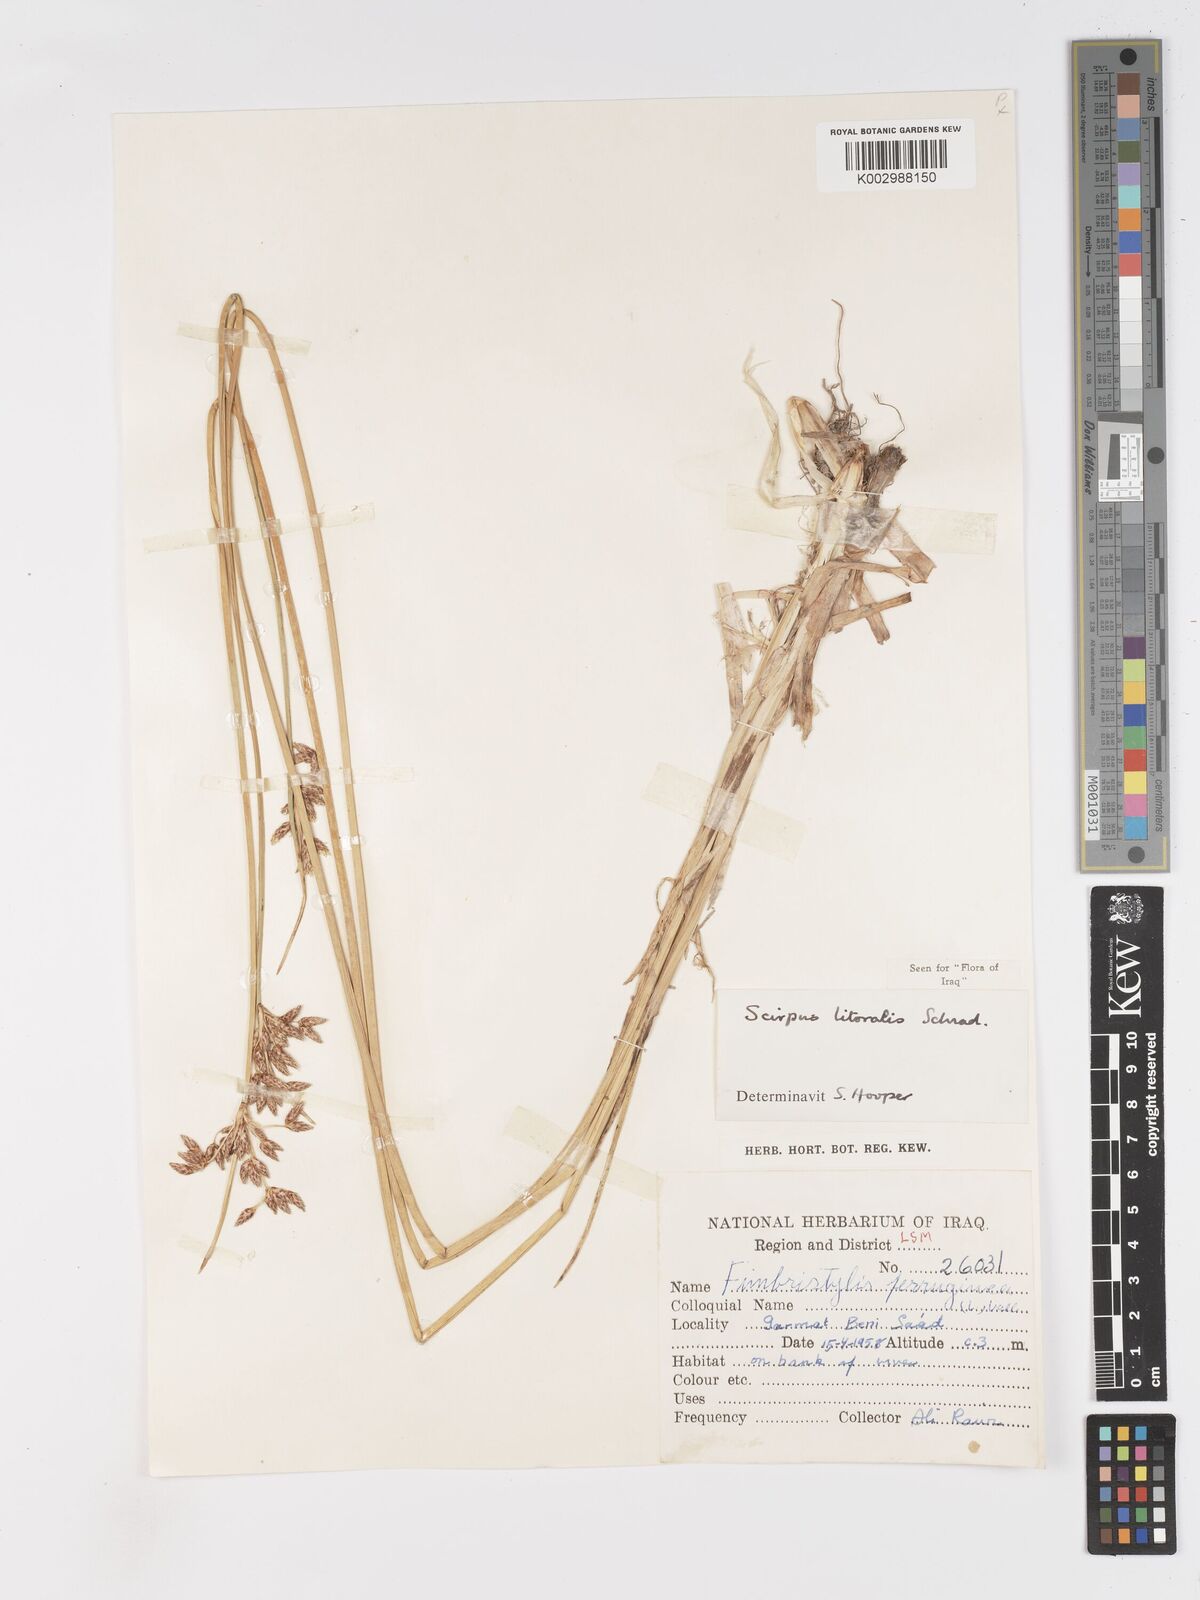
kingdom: Plantae
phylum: Tracheophyta
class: Liliopsida
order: Poales
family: Cyperaceae
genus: Schoenoplectus
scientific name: Schoenoplectus litoralis
